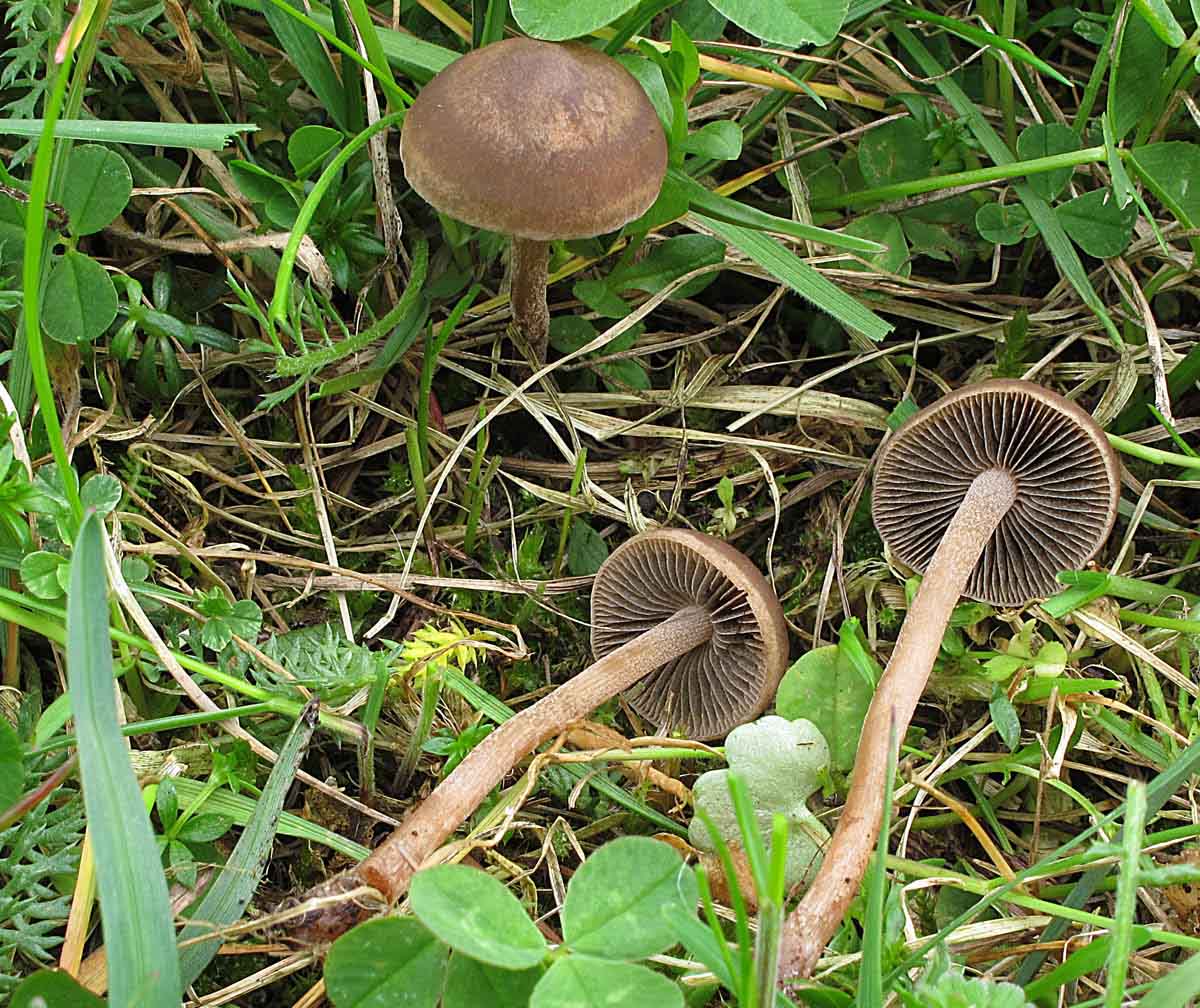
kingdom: Fungi
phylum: Basidiomycota
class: Agaricomycetes
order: Agaricales
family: Bolbitiaceae
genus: Panaeolus
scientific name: Panaeolus fimicola
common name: tidlig glanshat
